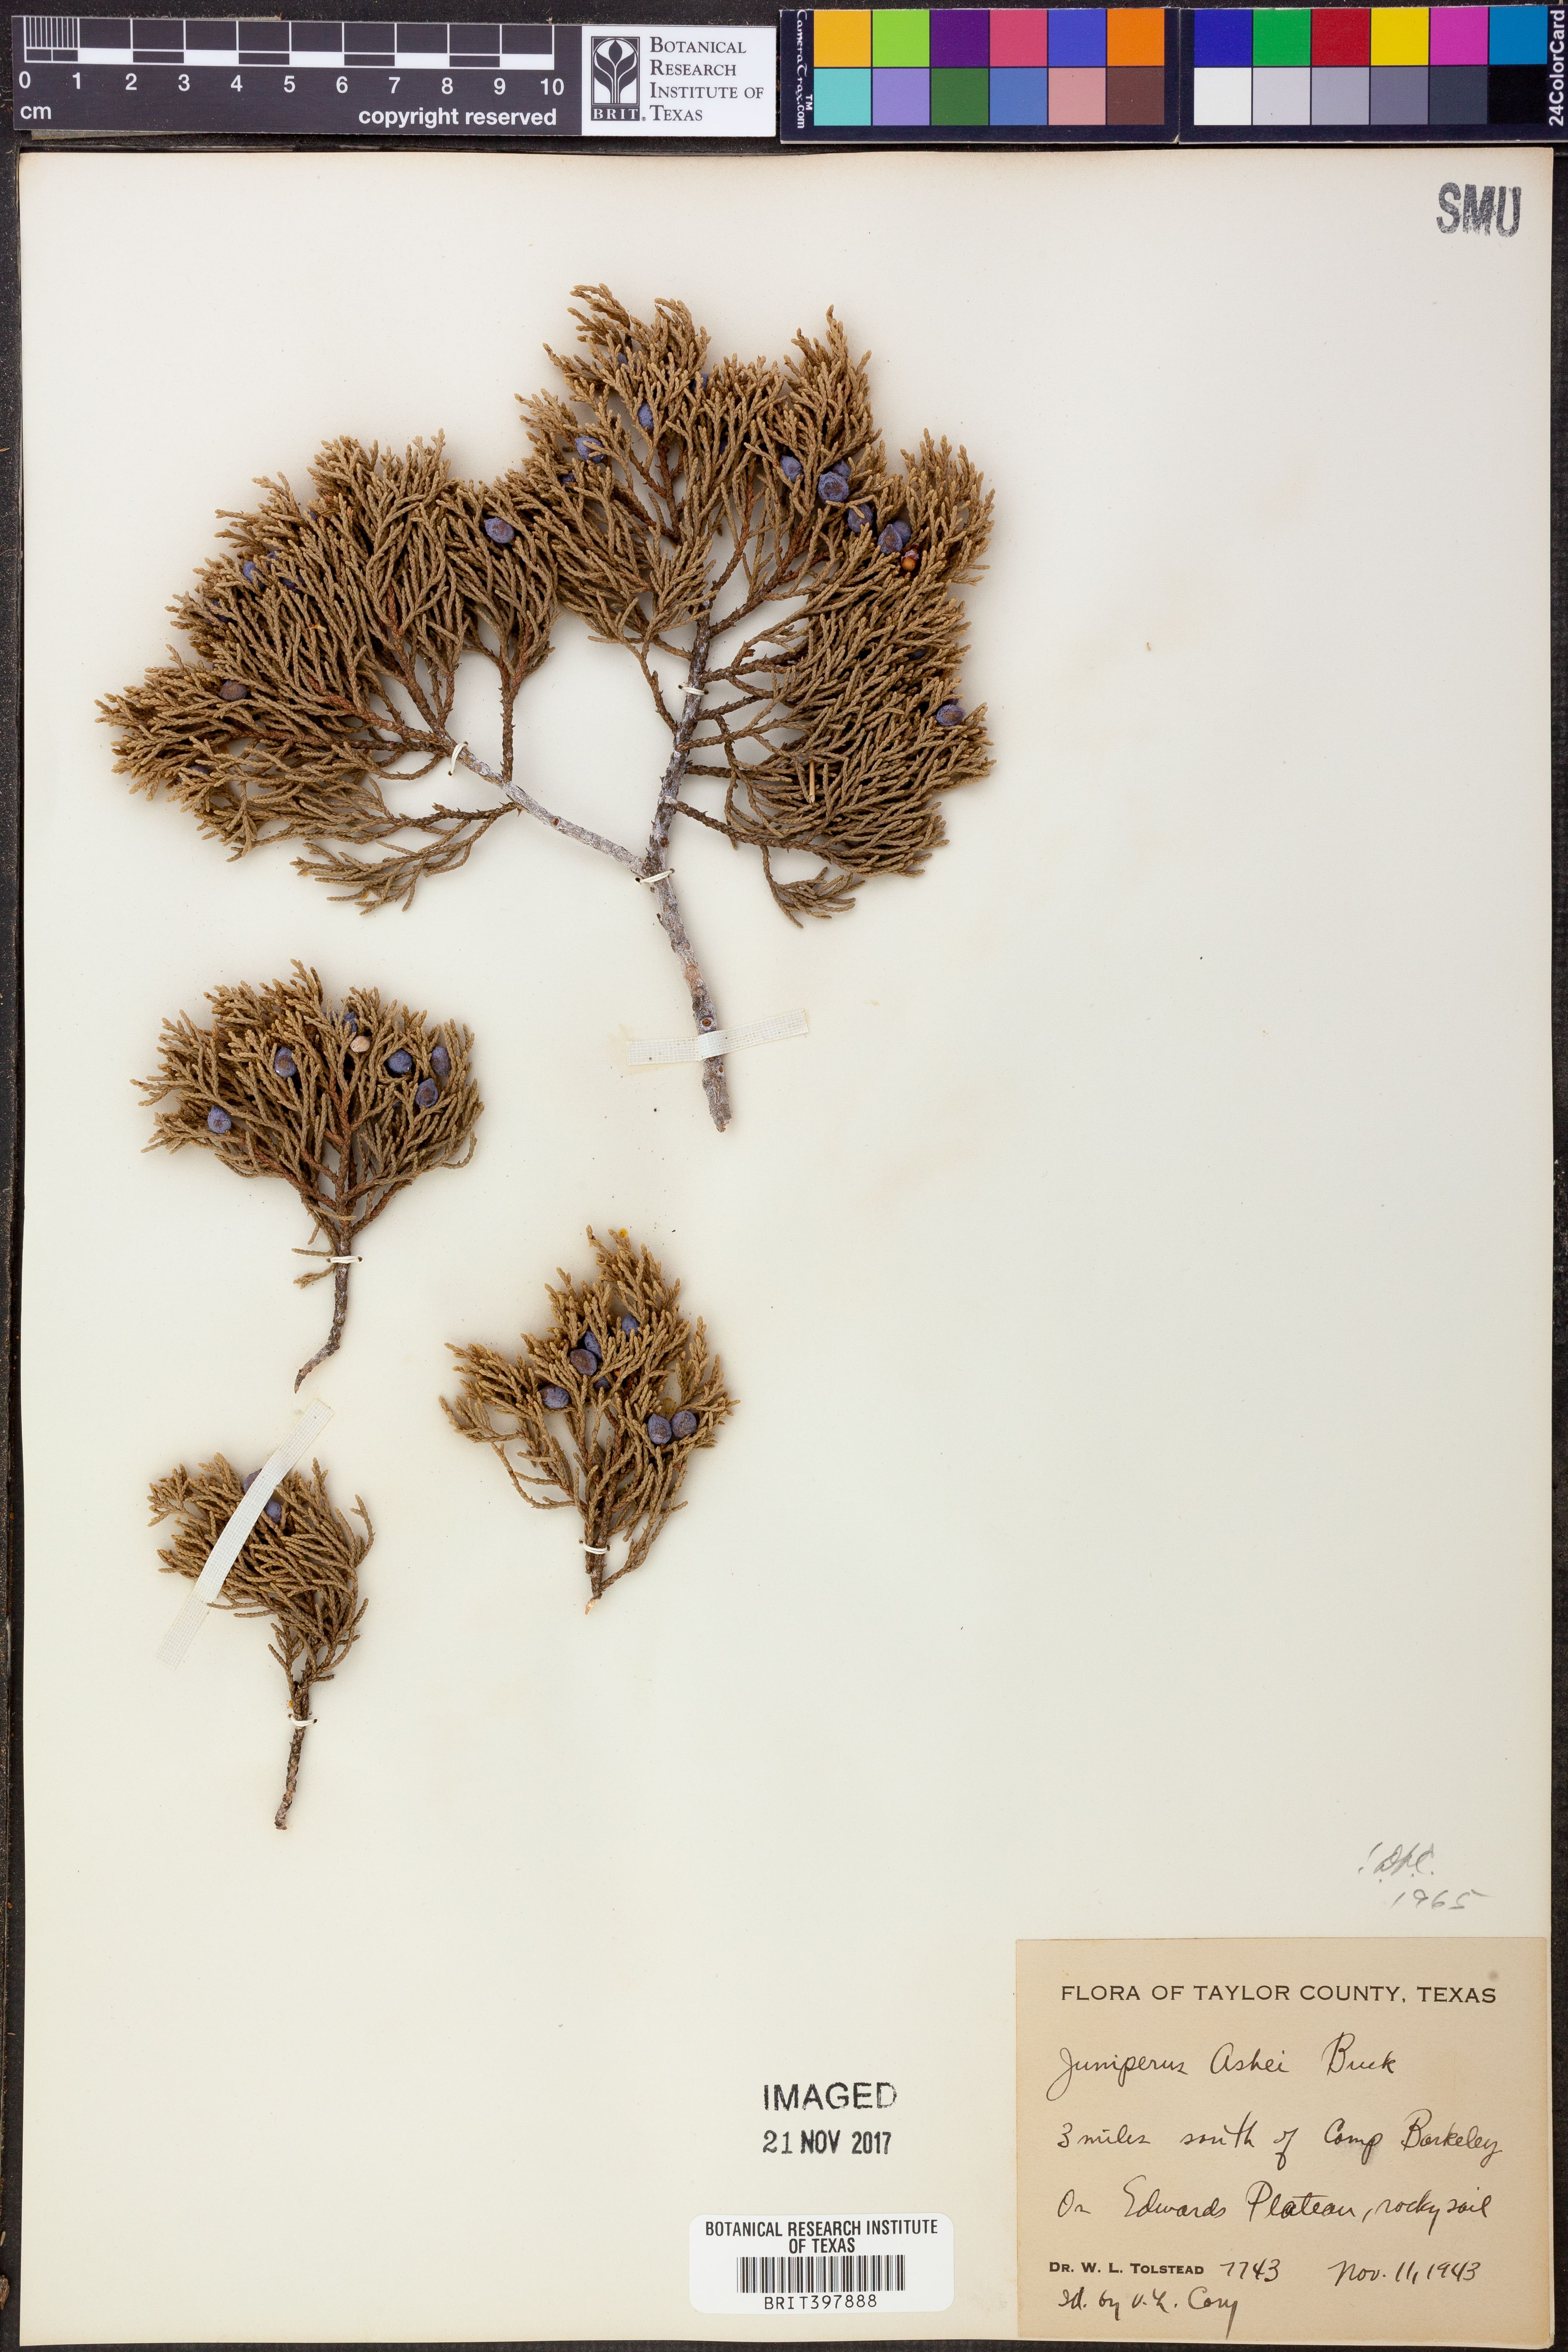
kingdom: Plantae
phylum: Tracheophyta
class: Pinopsida
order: Pinales
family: Cupressaceae
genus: Juniperus
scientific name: Juniperus ashei
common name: Mexican juniper
